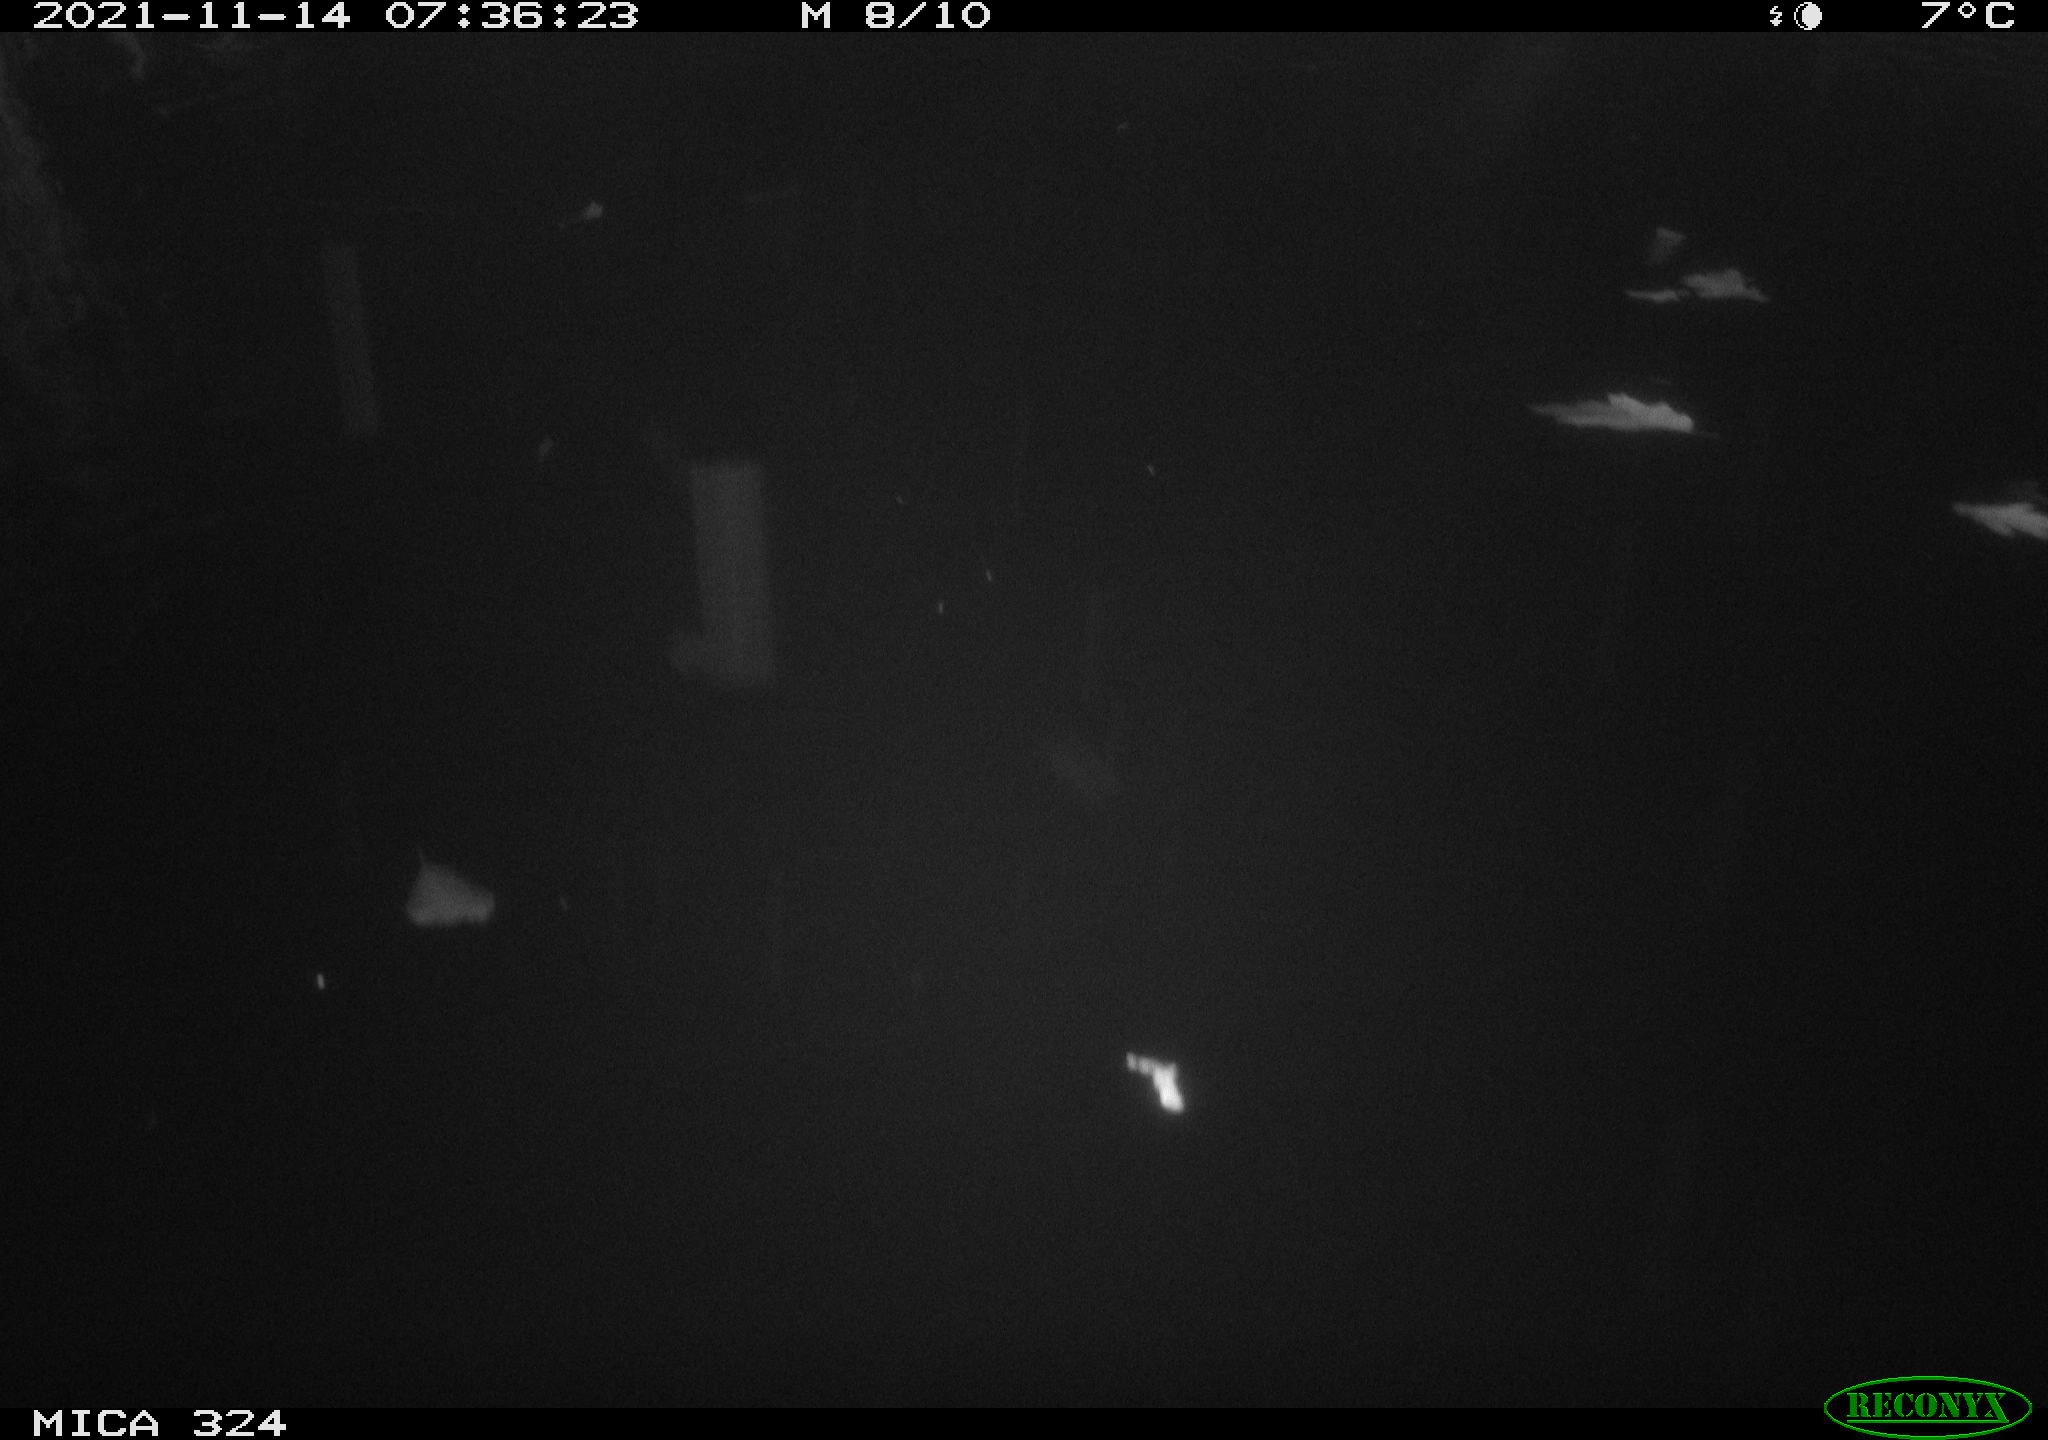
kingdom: Animalia
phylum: Chordata
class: Mammalia
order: Rodentia
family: Cricetidae
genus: Ondatra
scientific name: Ondatra zibethicus
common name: Muskrat
